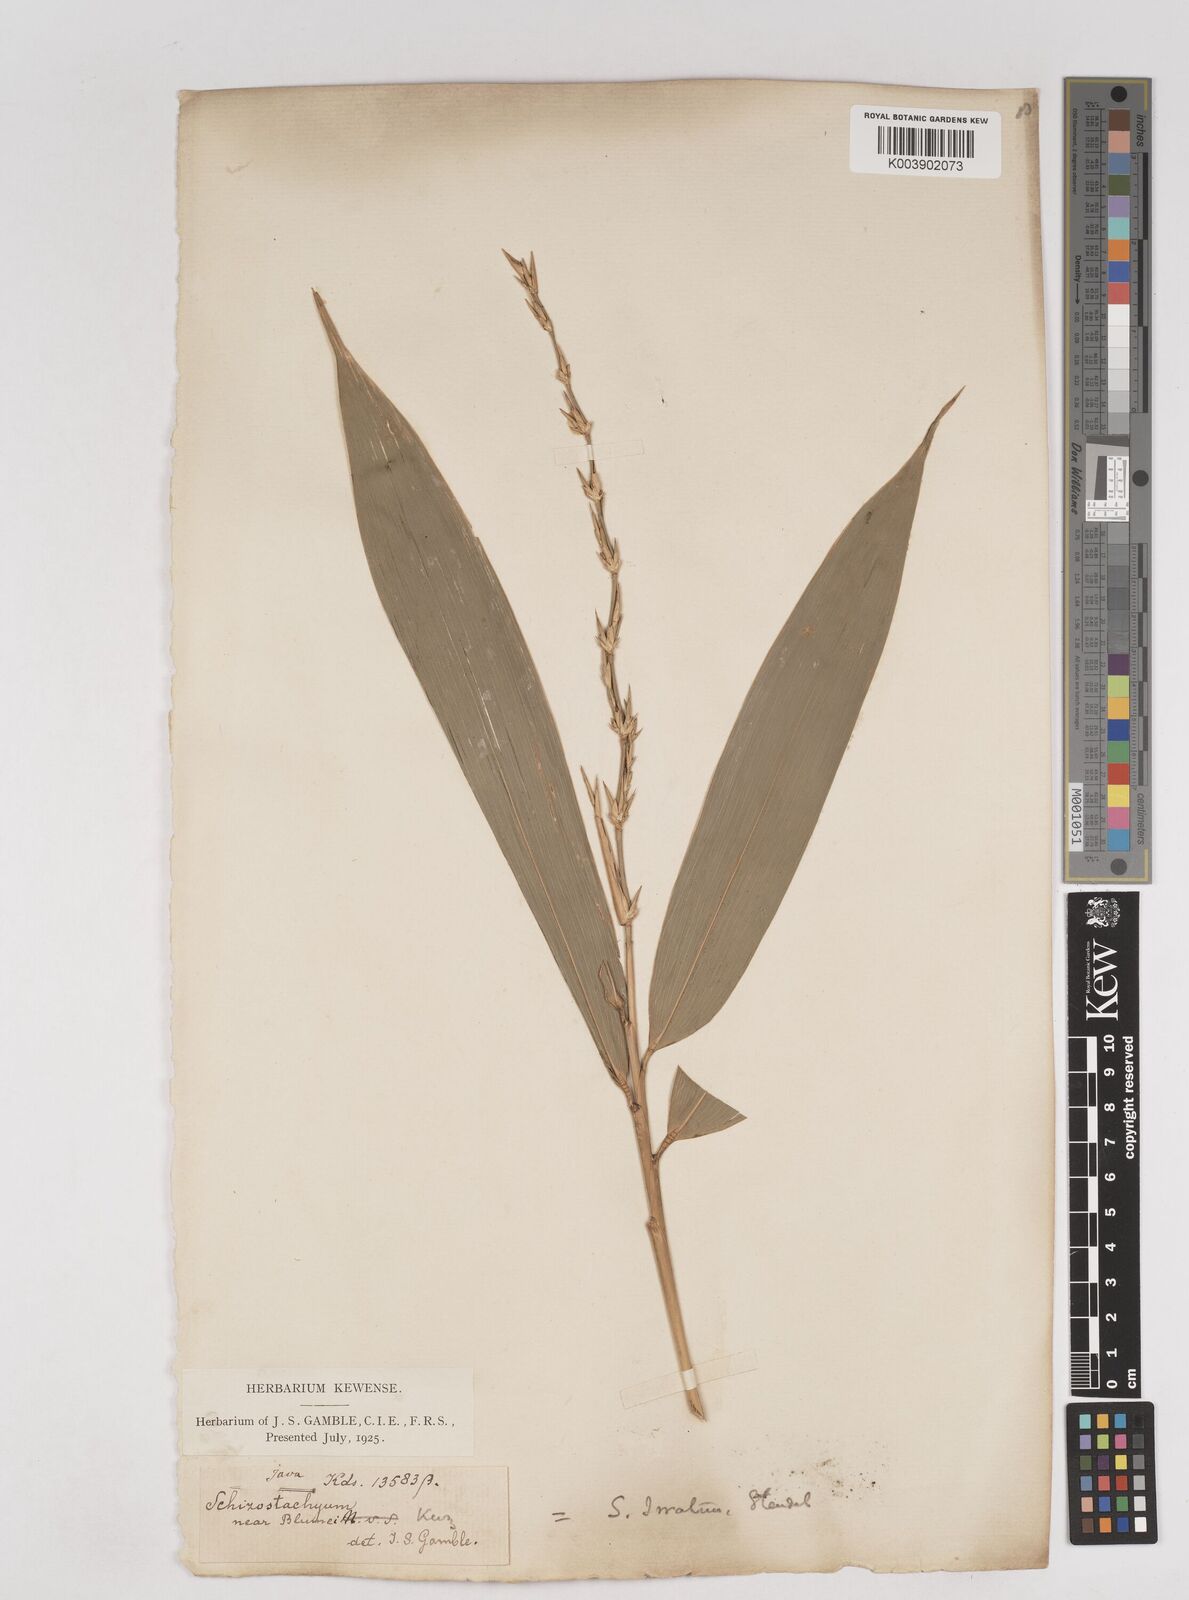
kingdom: Plantae
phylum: Tracheophyta
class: Liliopsida
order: Poales
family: Poaceae
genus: Schizostachyum
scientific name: Schizostachyum iraten
